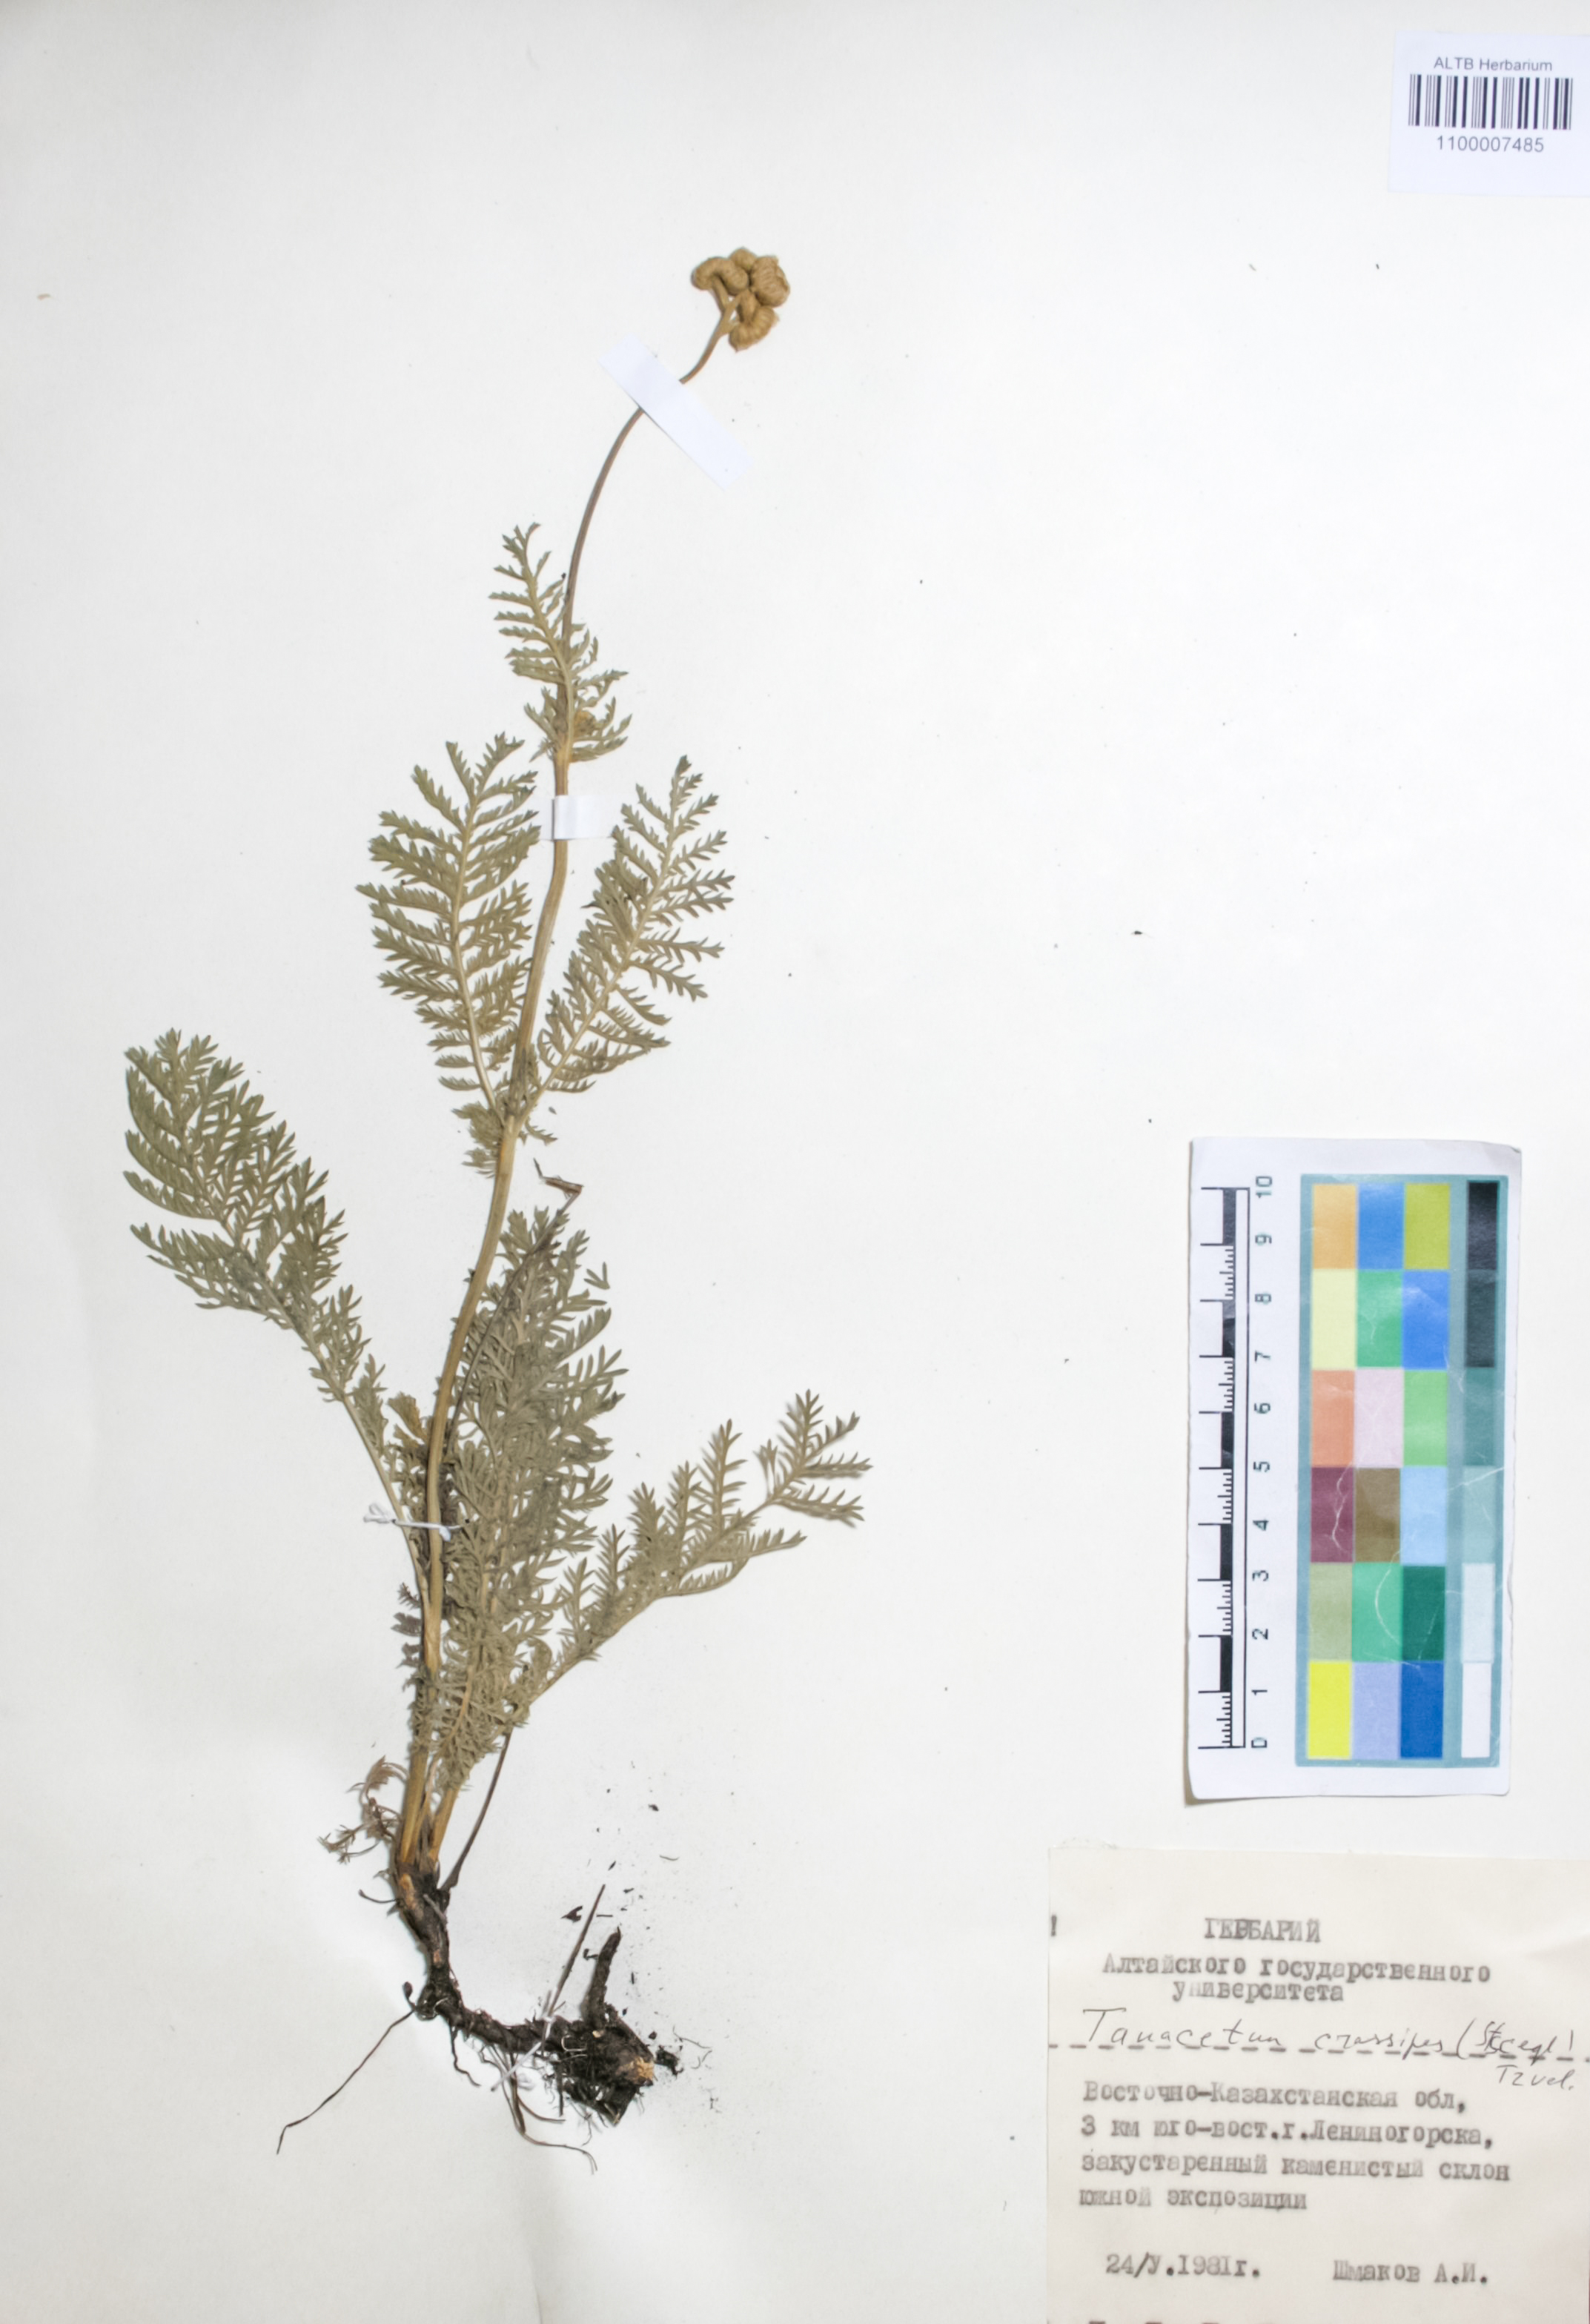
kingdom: Plantae
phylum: Tracheophyta
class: Magnoliopsida
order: Asterales
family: Asteraceae
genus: Tanacetum
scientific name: Tanacetum crassipes
